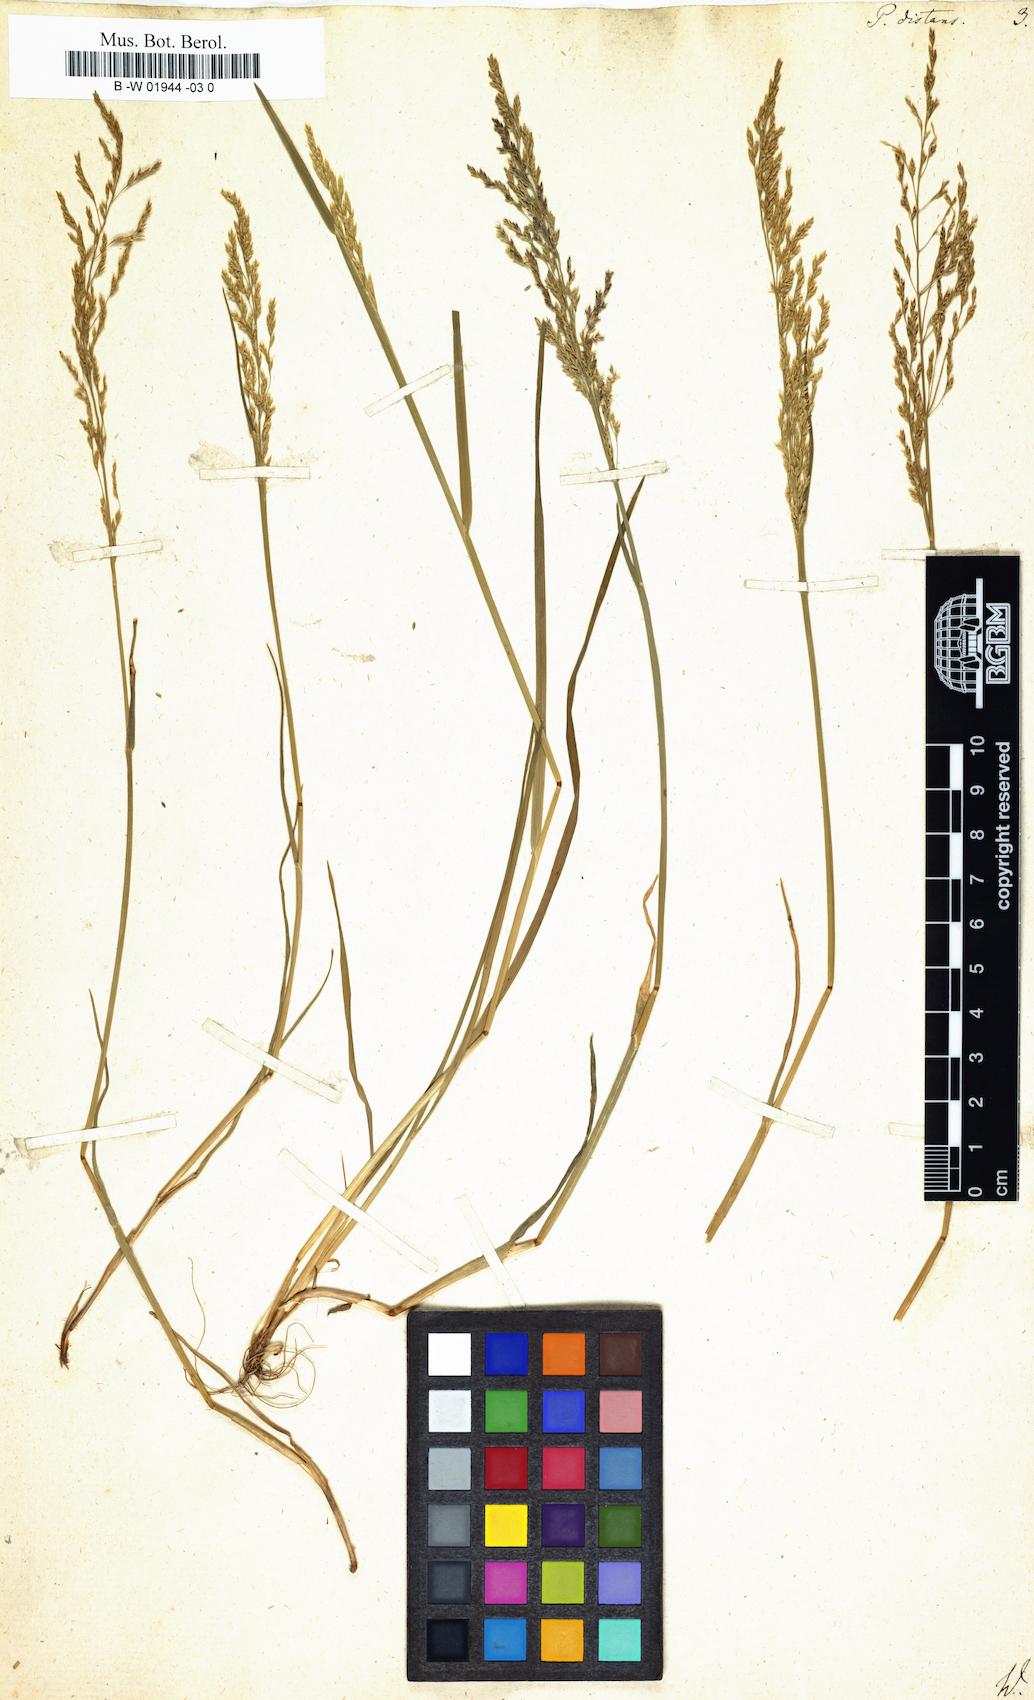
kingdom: Plantae
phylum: Tracheophyta
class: Liliopsida
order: Poales
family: Poaceae
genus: Poa
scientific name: Poa distans
